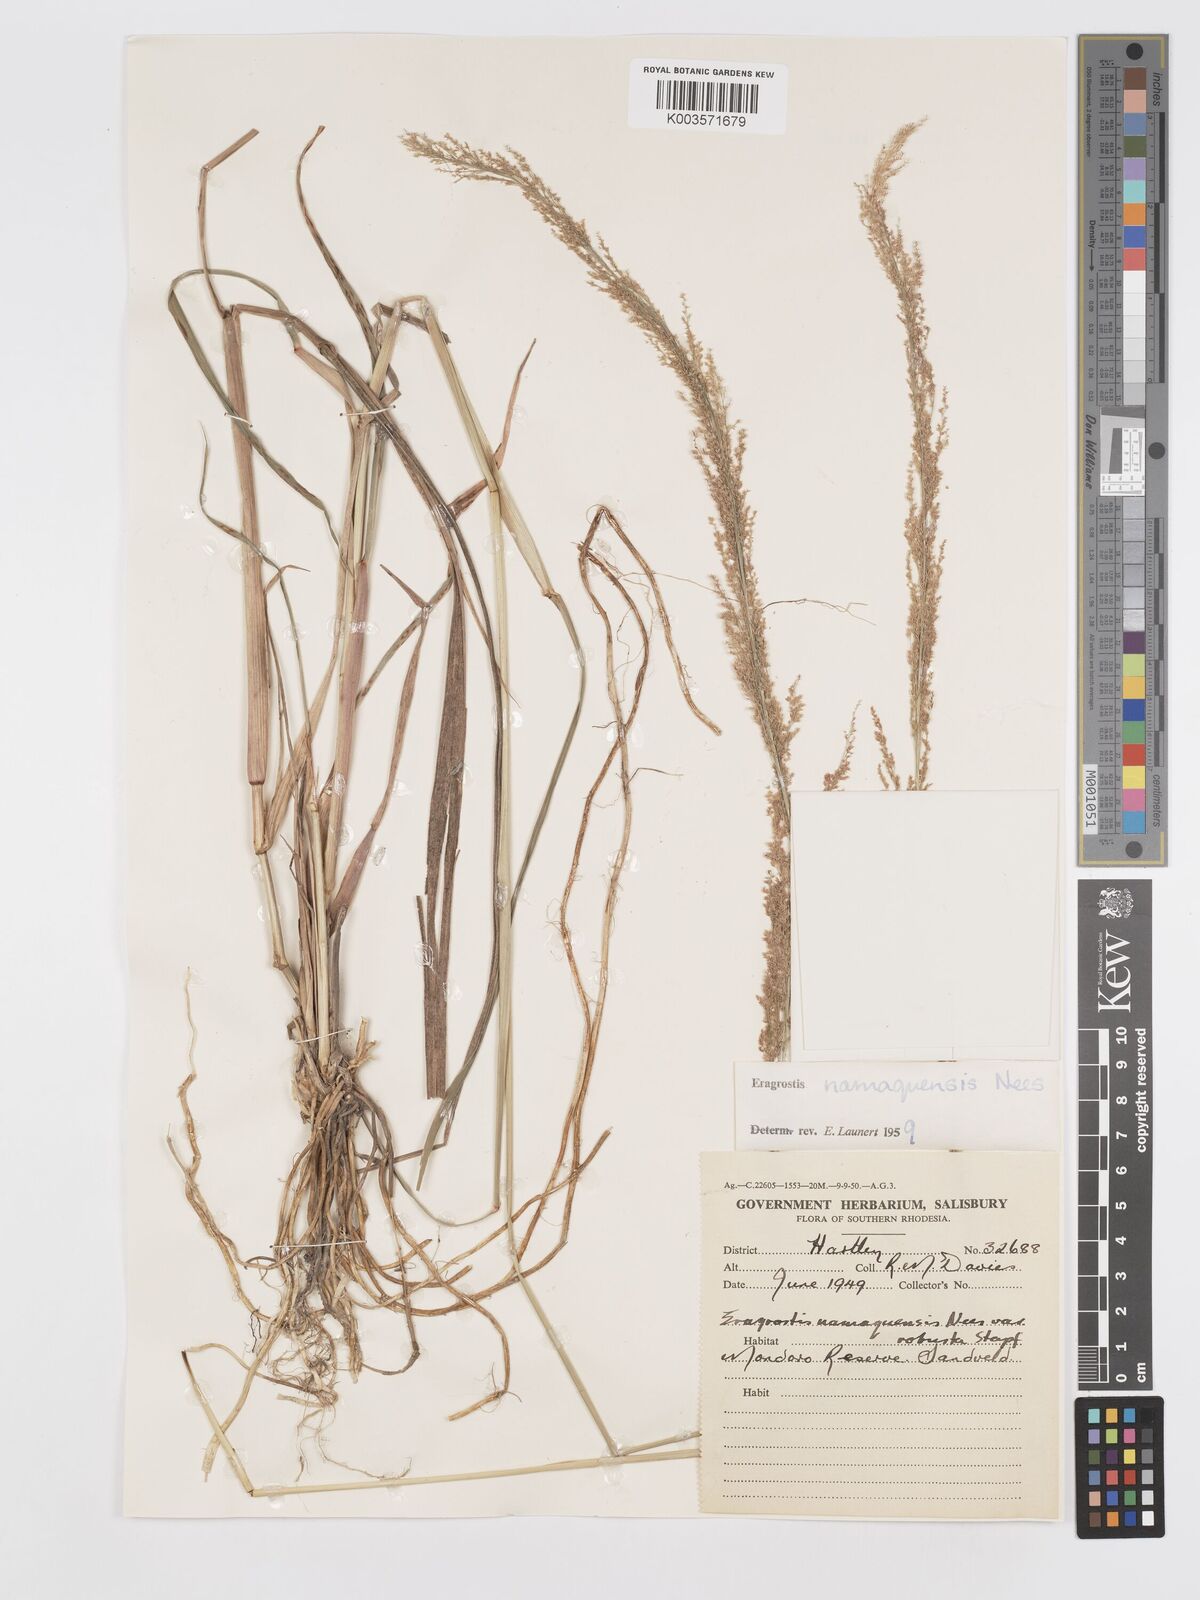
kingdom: Plantae
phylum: Tracheophyta
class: Liliopsida
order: Poales
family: Poaceae
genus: Eragrostis
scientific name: Eragrostis japonica
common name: Pond lovegrass
